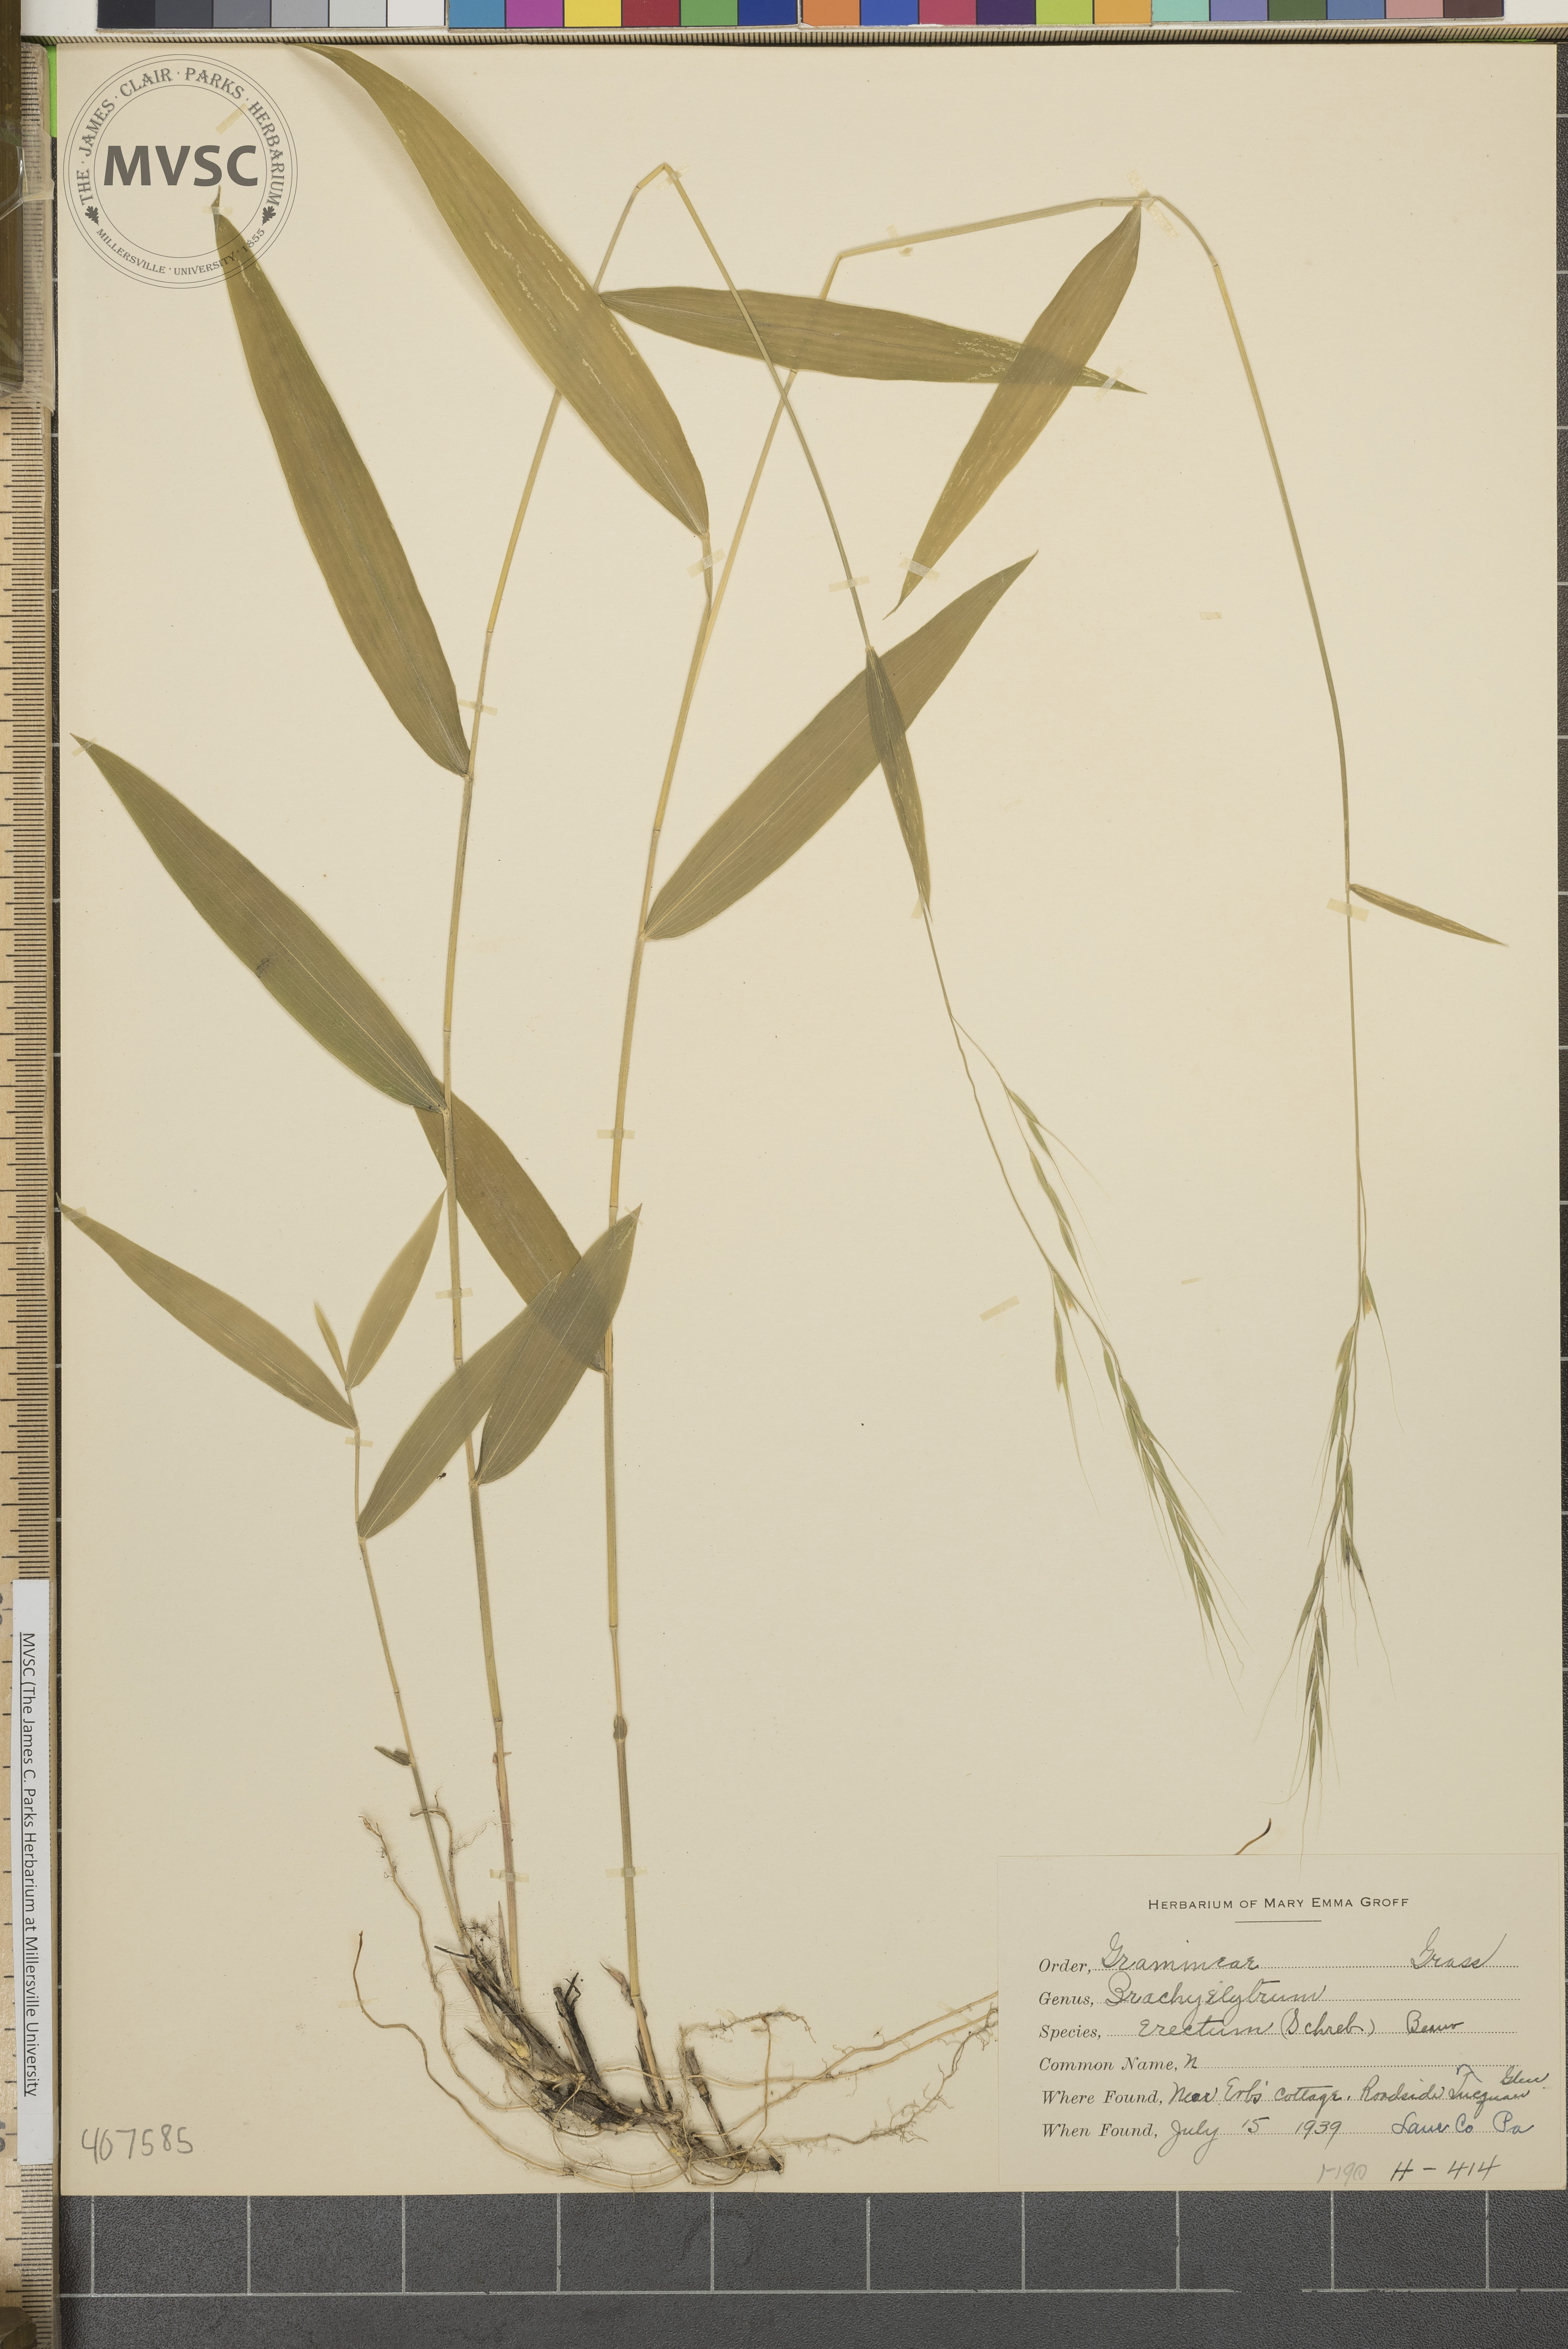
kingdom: Plantae
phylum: Tracheophyta
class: Liliopsida
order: Poales
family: Poaceae
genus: Brachyelytrum
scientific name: Brachyelytrum erectum
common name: Bearded shorthusk
